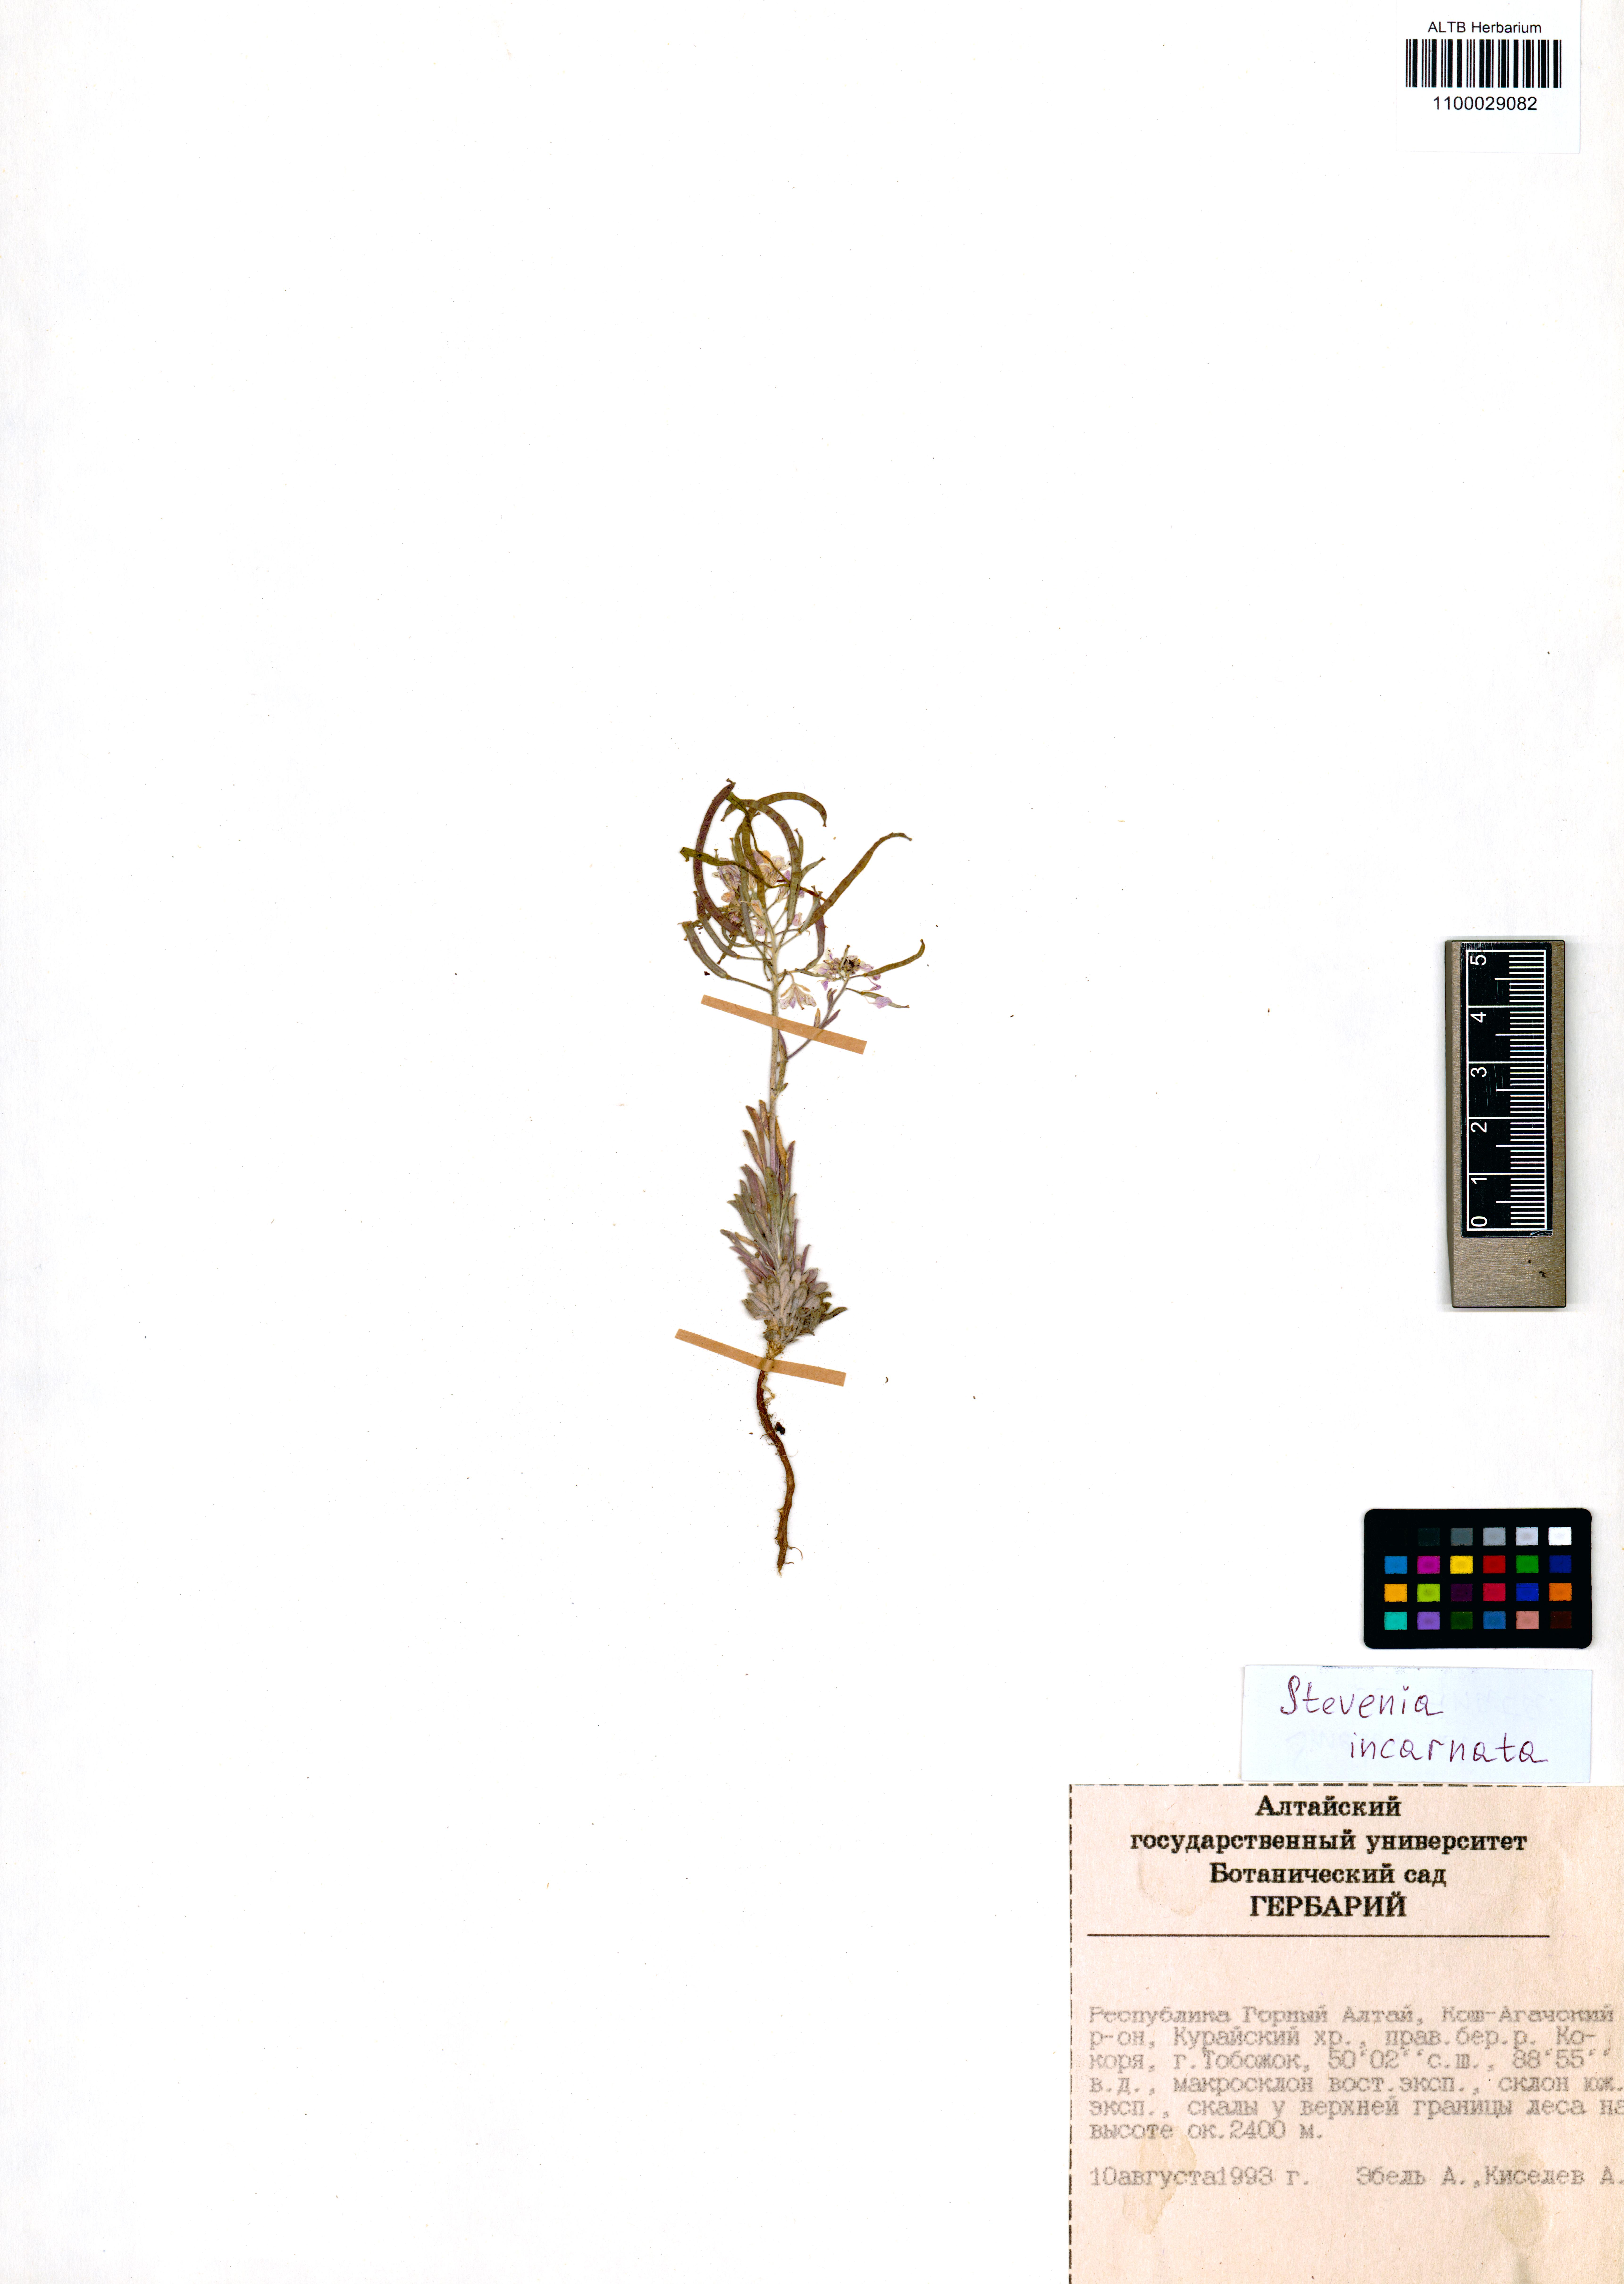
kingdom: Plantae
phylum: Tracheophyta
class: Magnoliopsida
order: Brassicales
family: Brassicaceae
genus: Stevenia
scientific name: Stevenia incarnata
